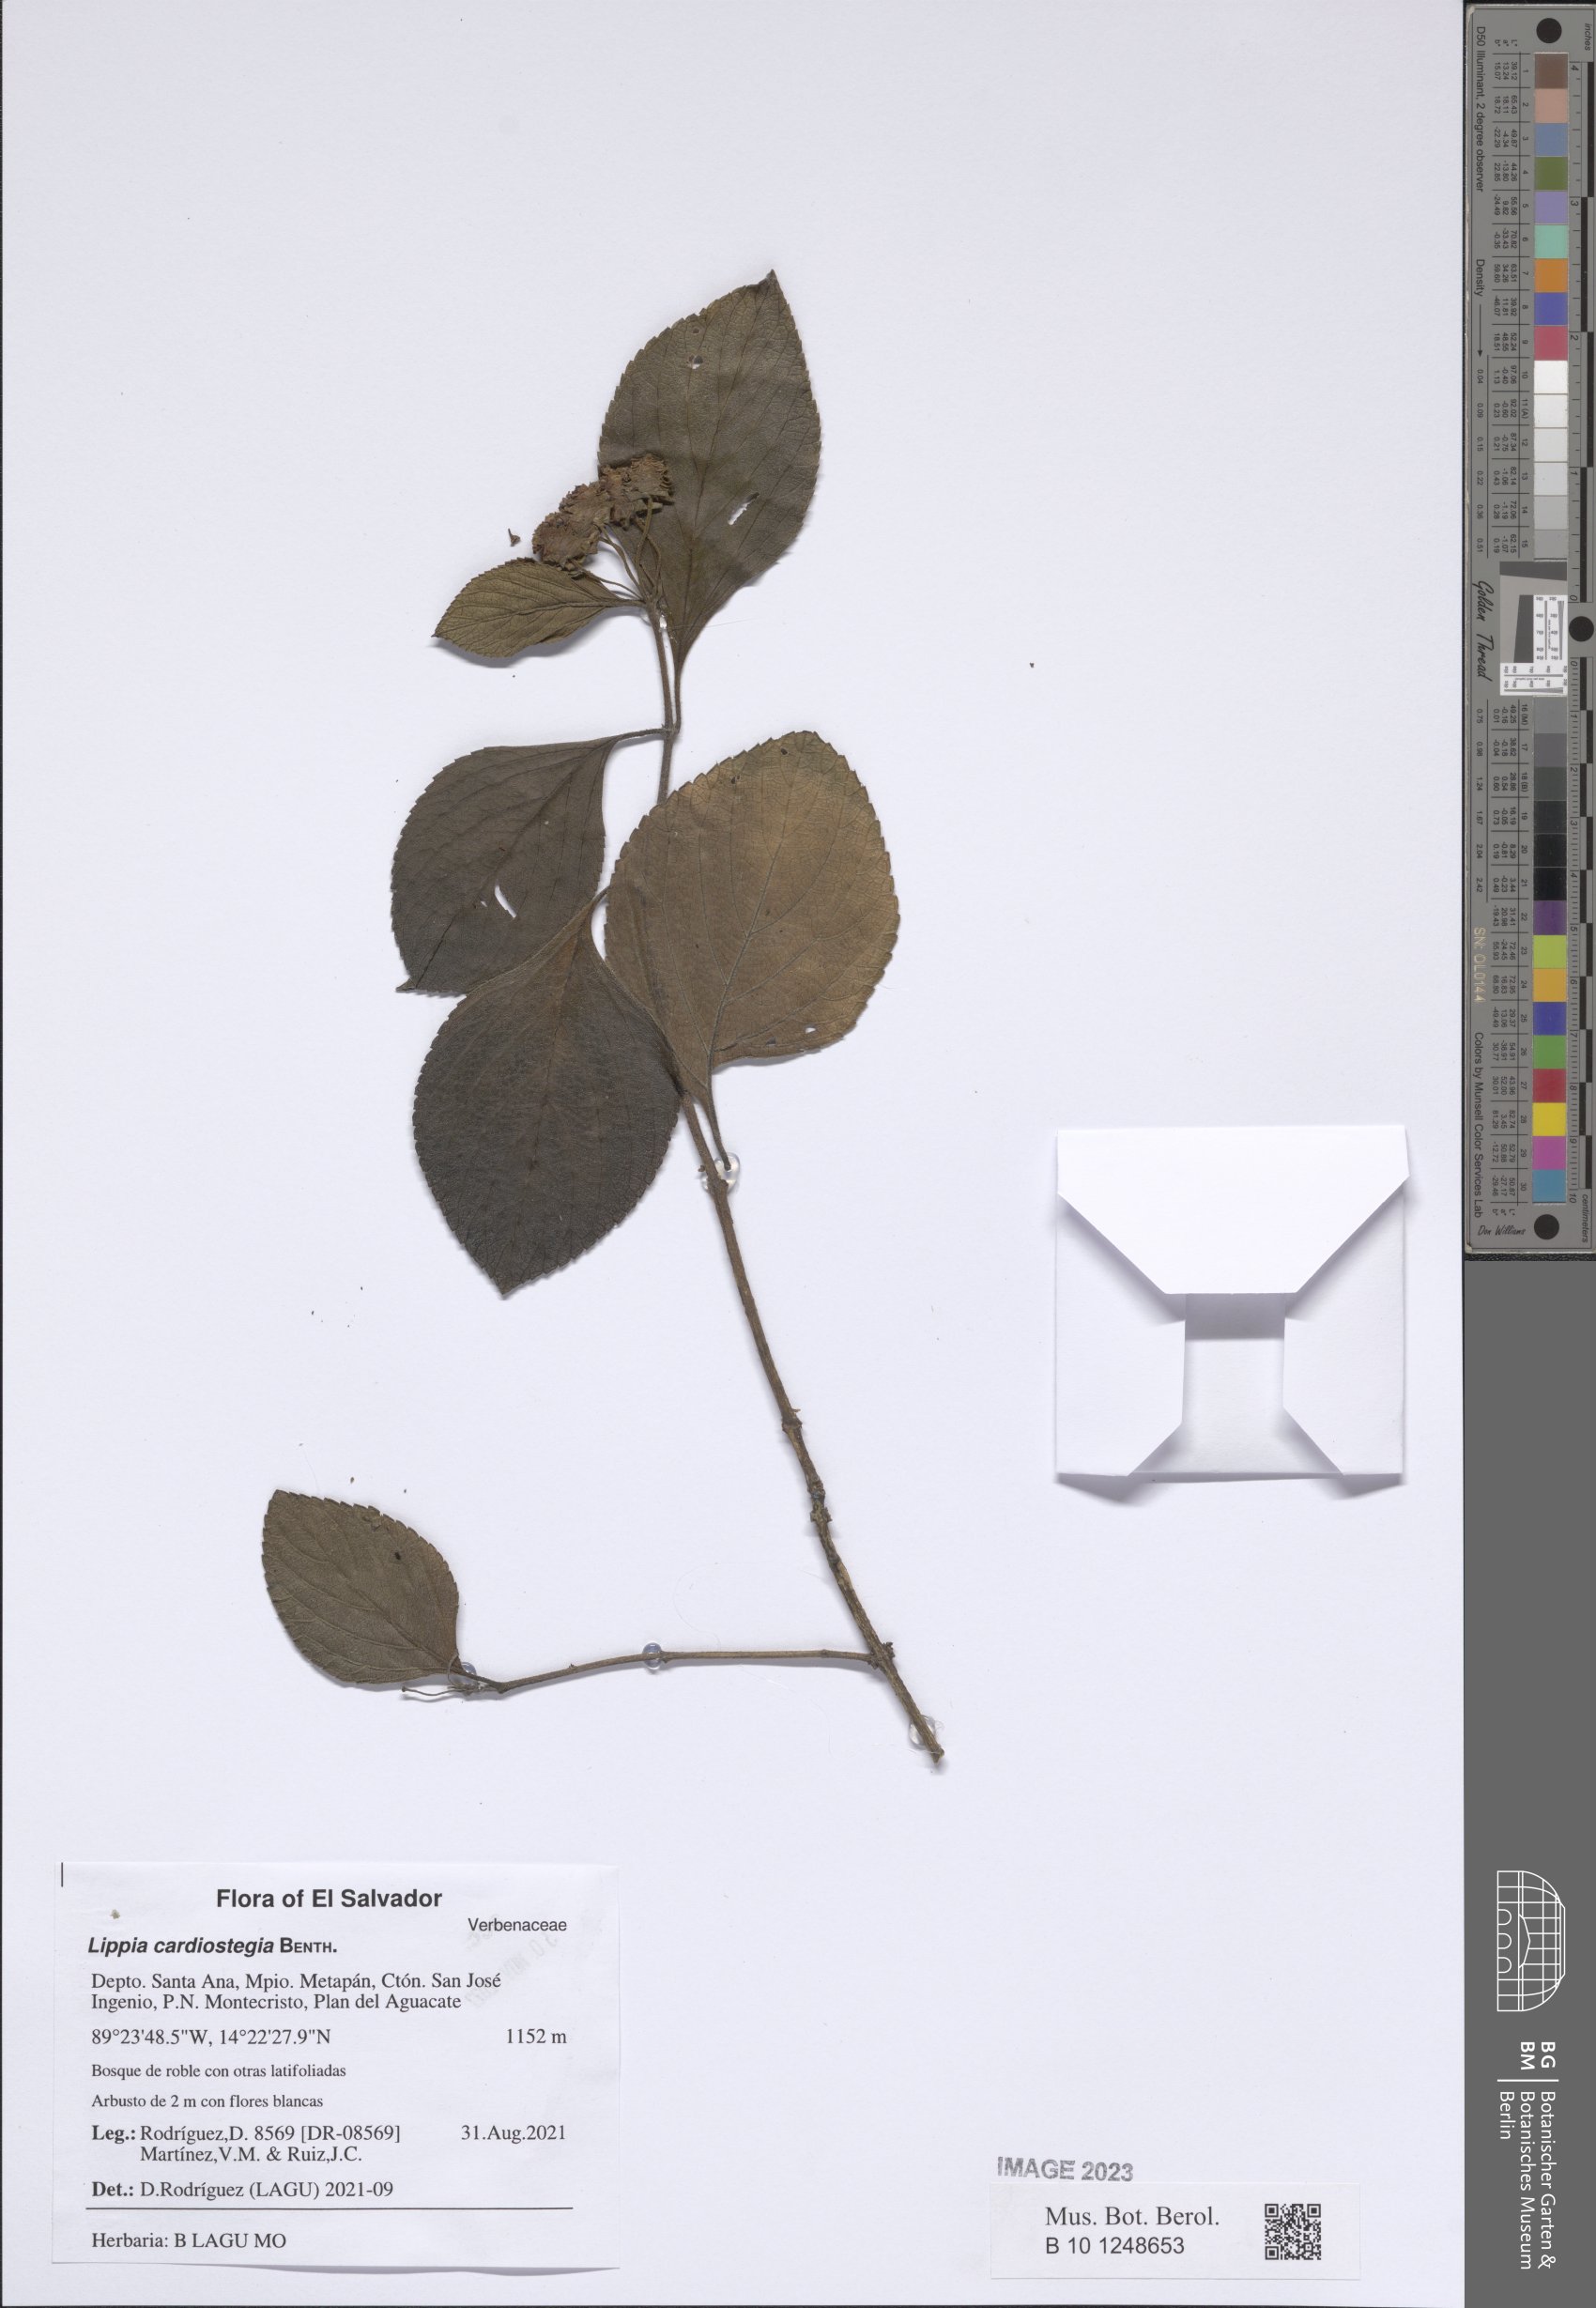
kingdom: Plantae
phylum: Tracheophyta
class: Magnoliopsida
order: Lamiales
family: Verbenaceae
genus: Lippia
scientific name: Lippia cardiostegia
